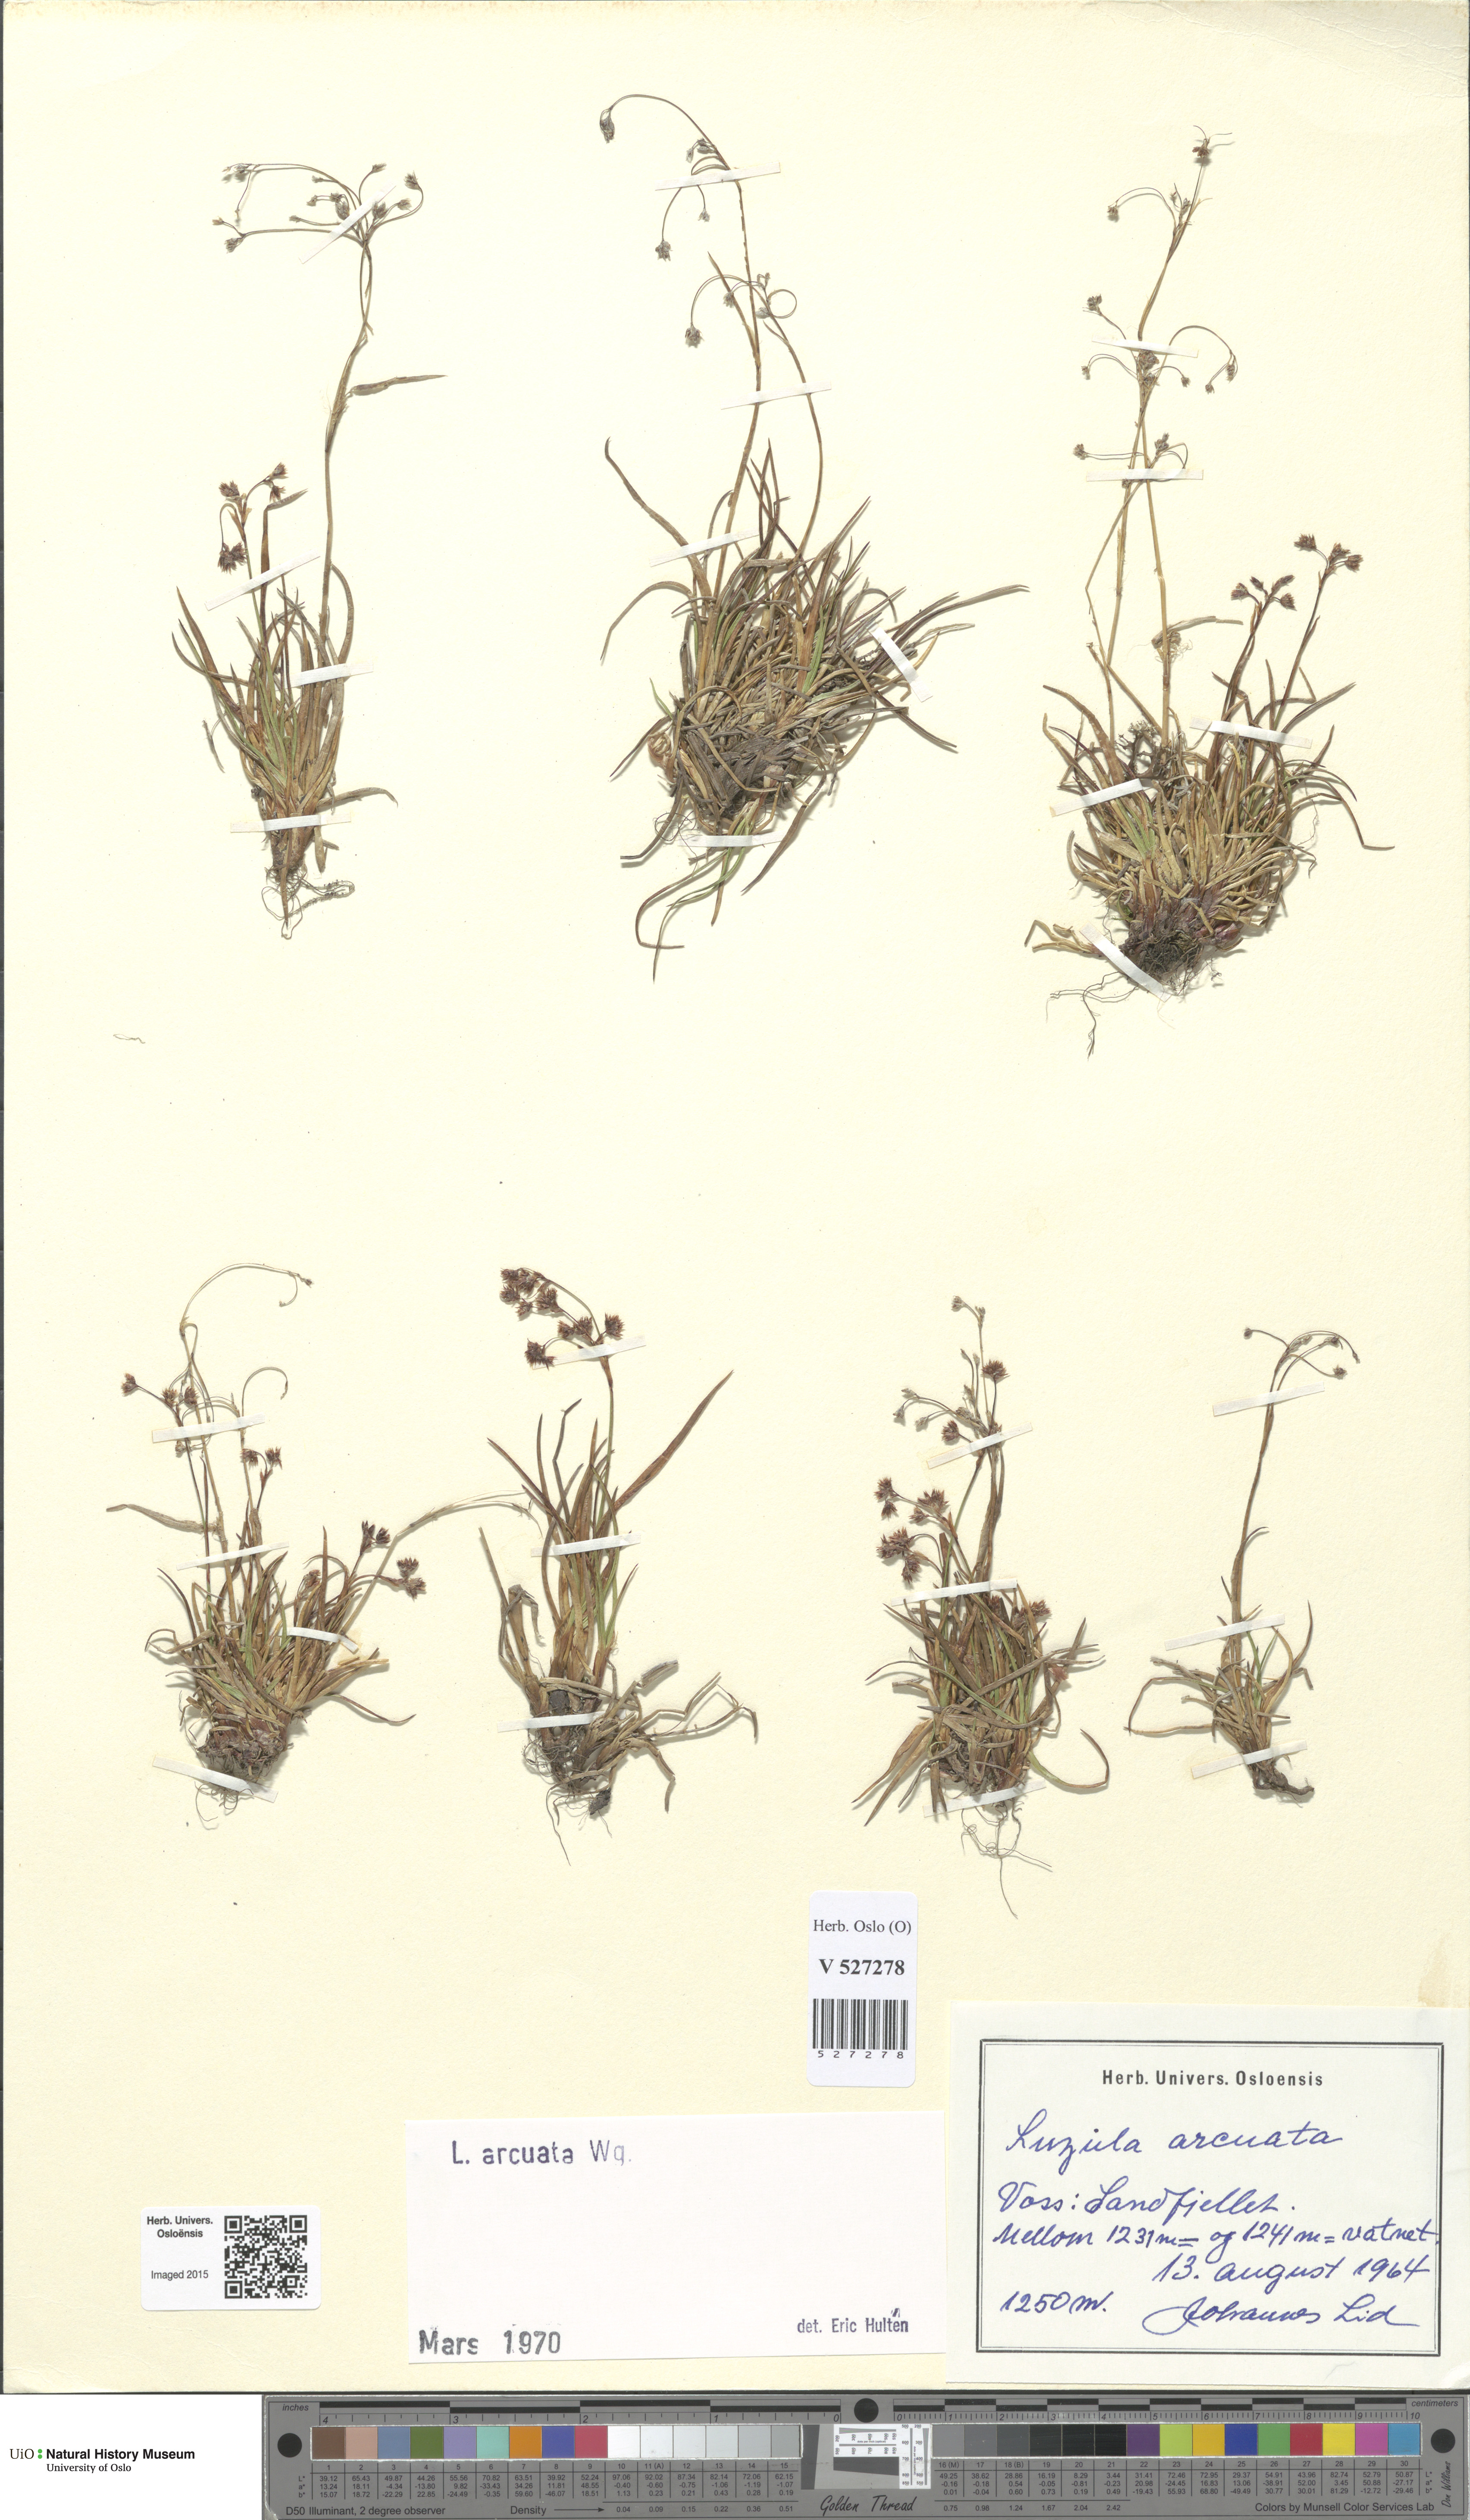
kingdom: Plantae
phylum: Tracheophyta
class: Liliopsida
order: Poales
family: Juncaceae
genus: Luzula
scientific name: Luzula arcuata
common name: Curved wood-rush
